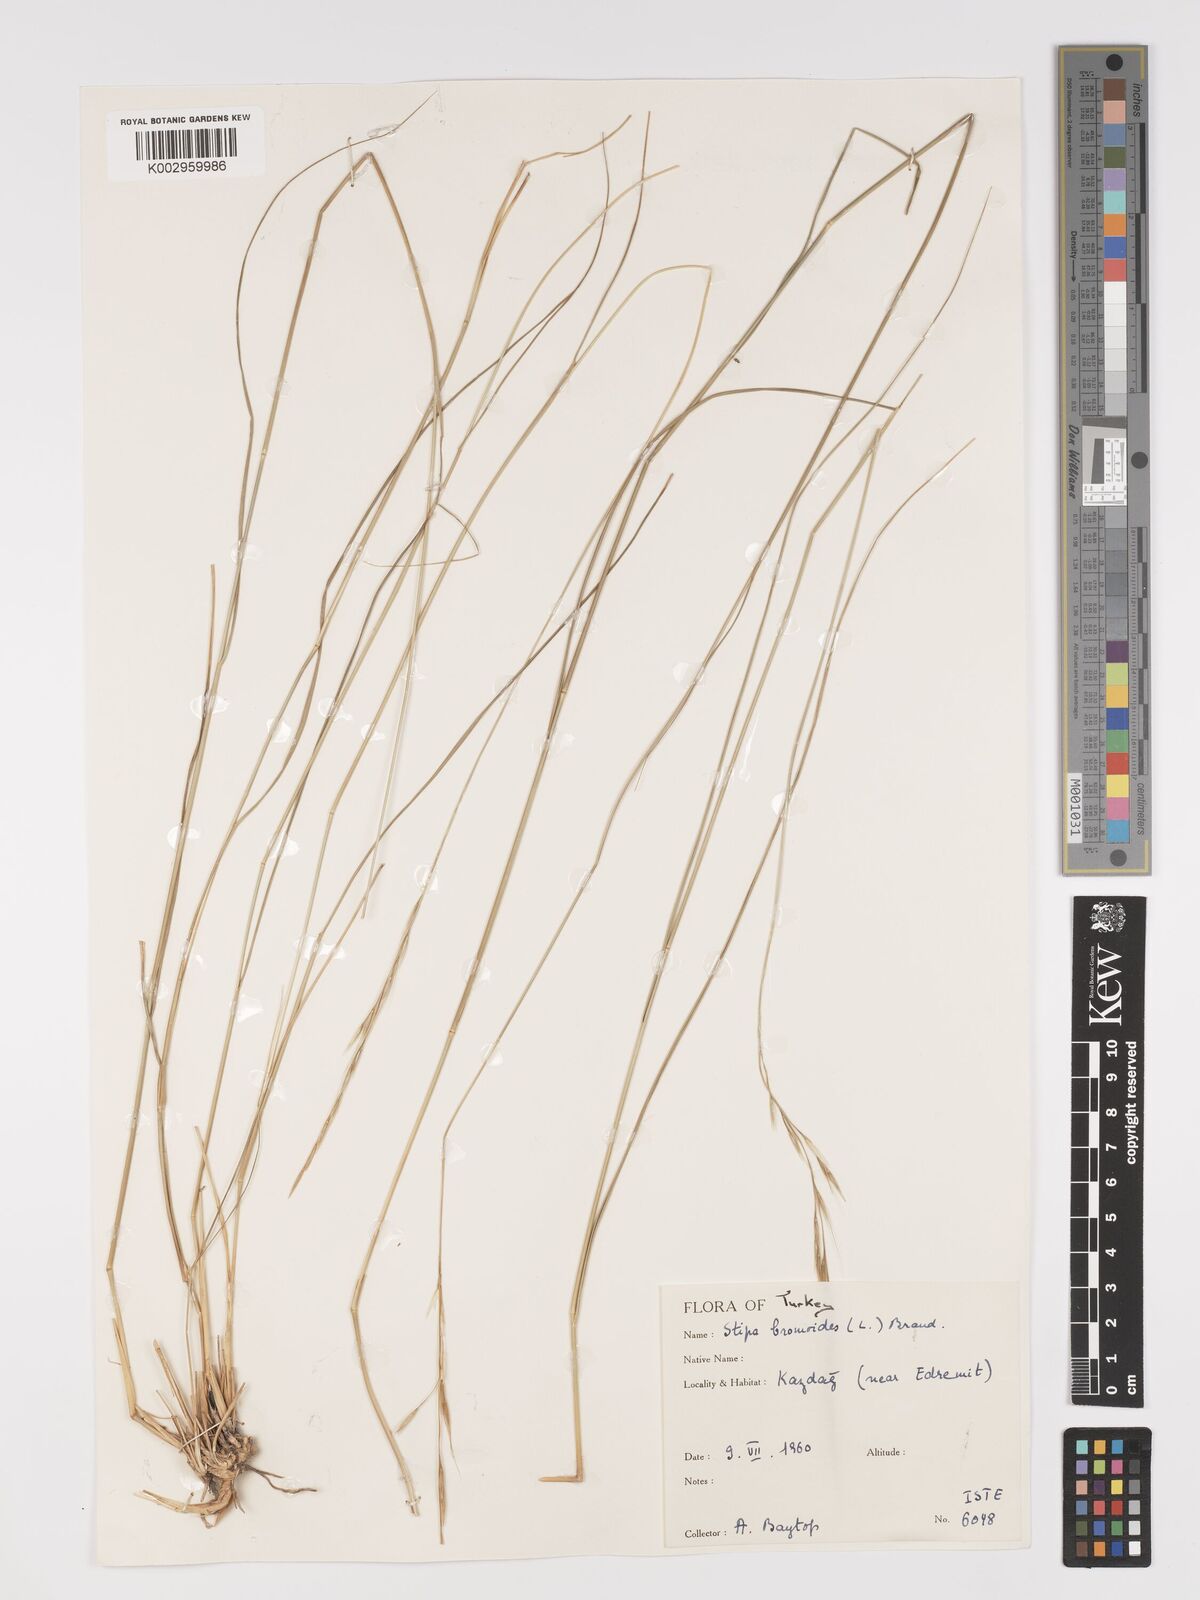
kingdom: Plantae
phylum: Tracheophyta
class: Liliopsida
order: Poales
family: Poaceae
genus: Achnatherum
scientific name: Achnatherum bromoides
